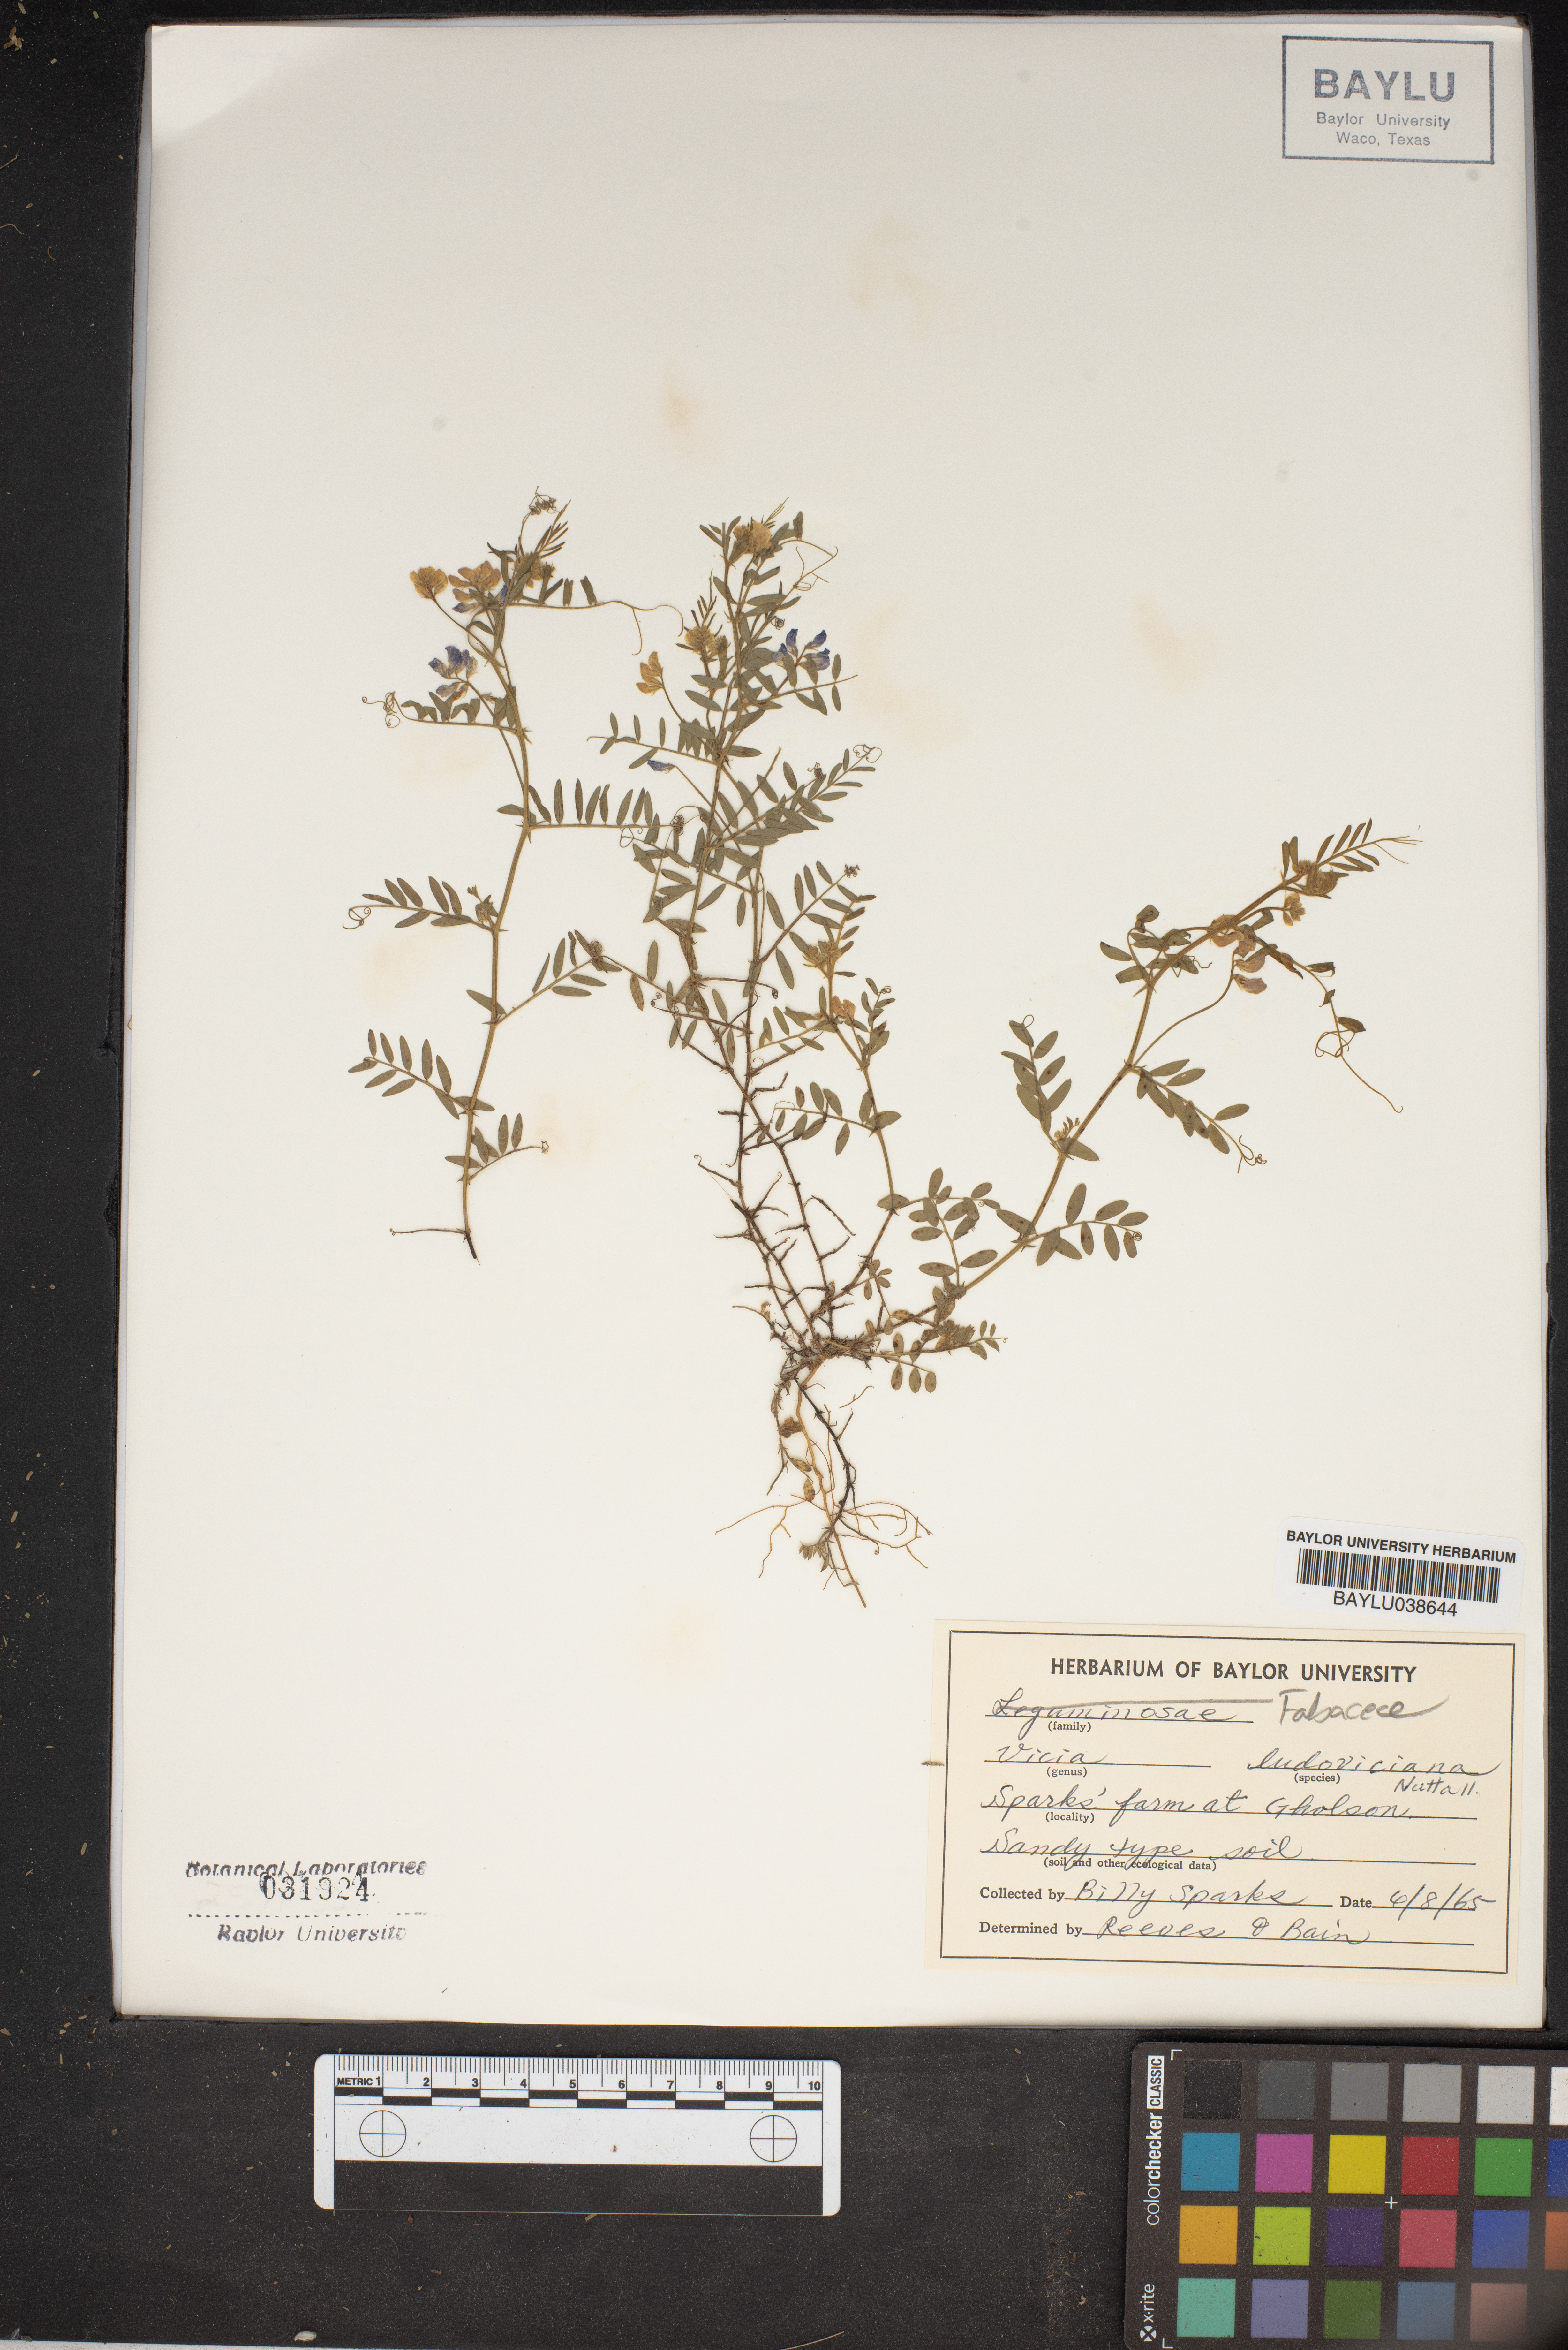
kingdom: Plantae
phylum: Tracheophyta
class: Magnoliopsida
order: Fabales
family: Fabaceae
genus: Vicia
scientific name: Vicia ludoviciana
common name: Louisiana vetch
